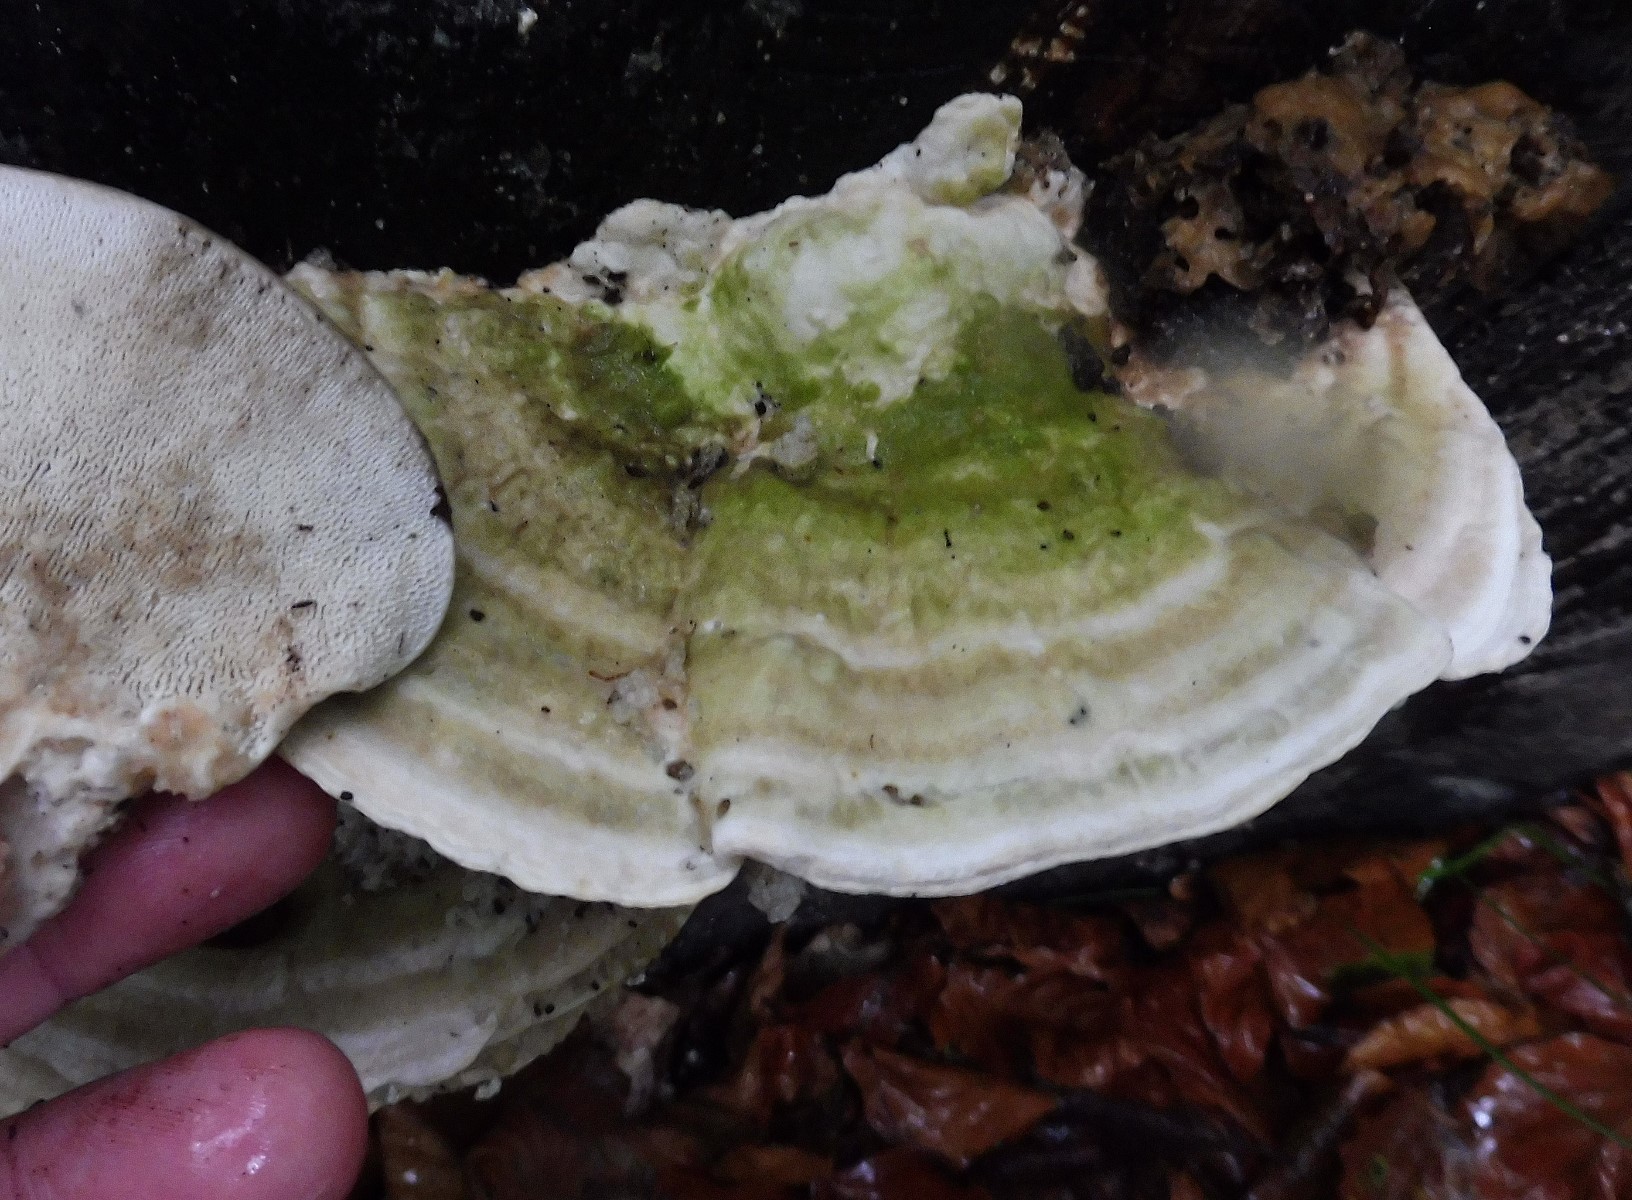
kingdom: Fungi
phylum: Basidiomycota
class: Agaricomycetes
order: Polyporales
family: Polyporaceae
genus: Trametes
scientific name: Trametes gibbosa
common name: puklet læderporesvamp
